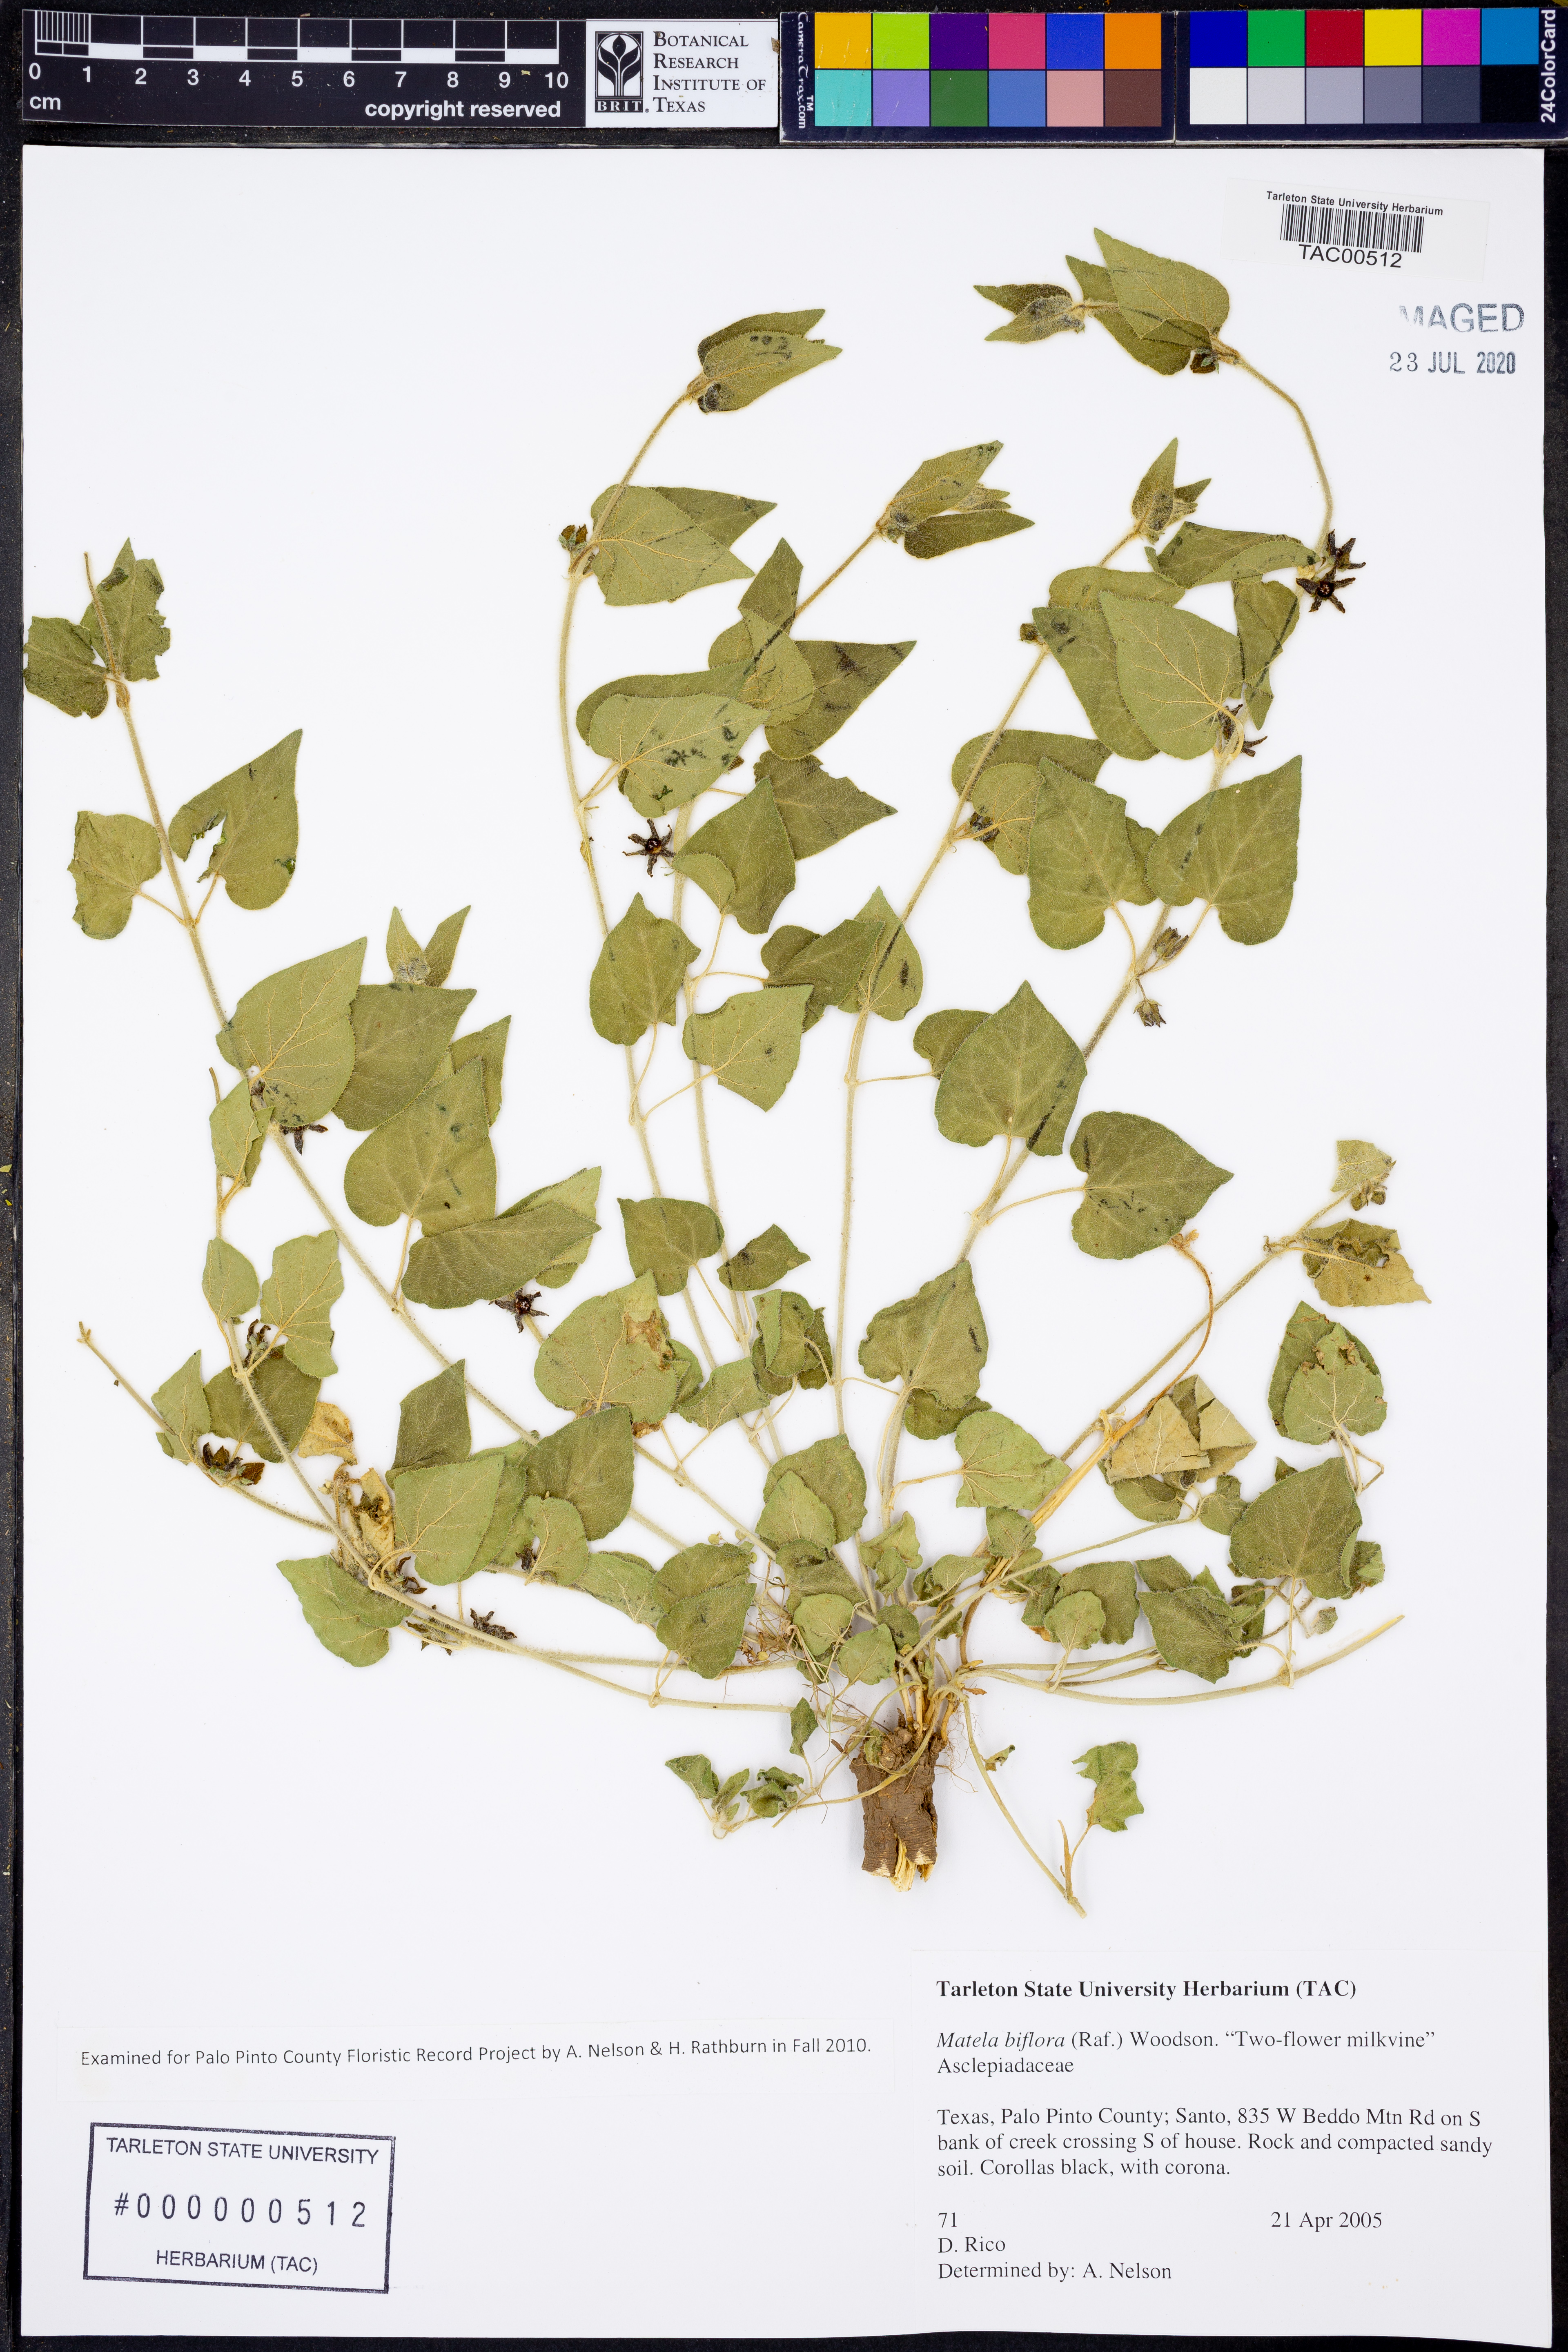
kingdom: Plantae
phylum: Tracheophyta
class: Magnoliopsida
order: Gentianales
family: Apocynaceae
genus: Chthamalia
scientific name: Chthamalia biflora
